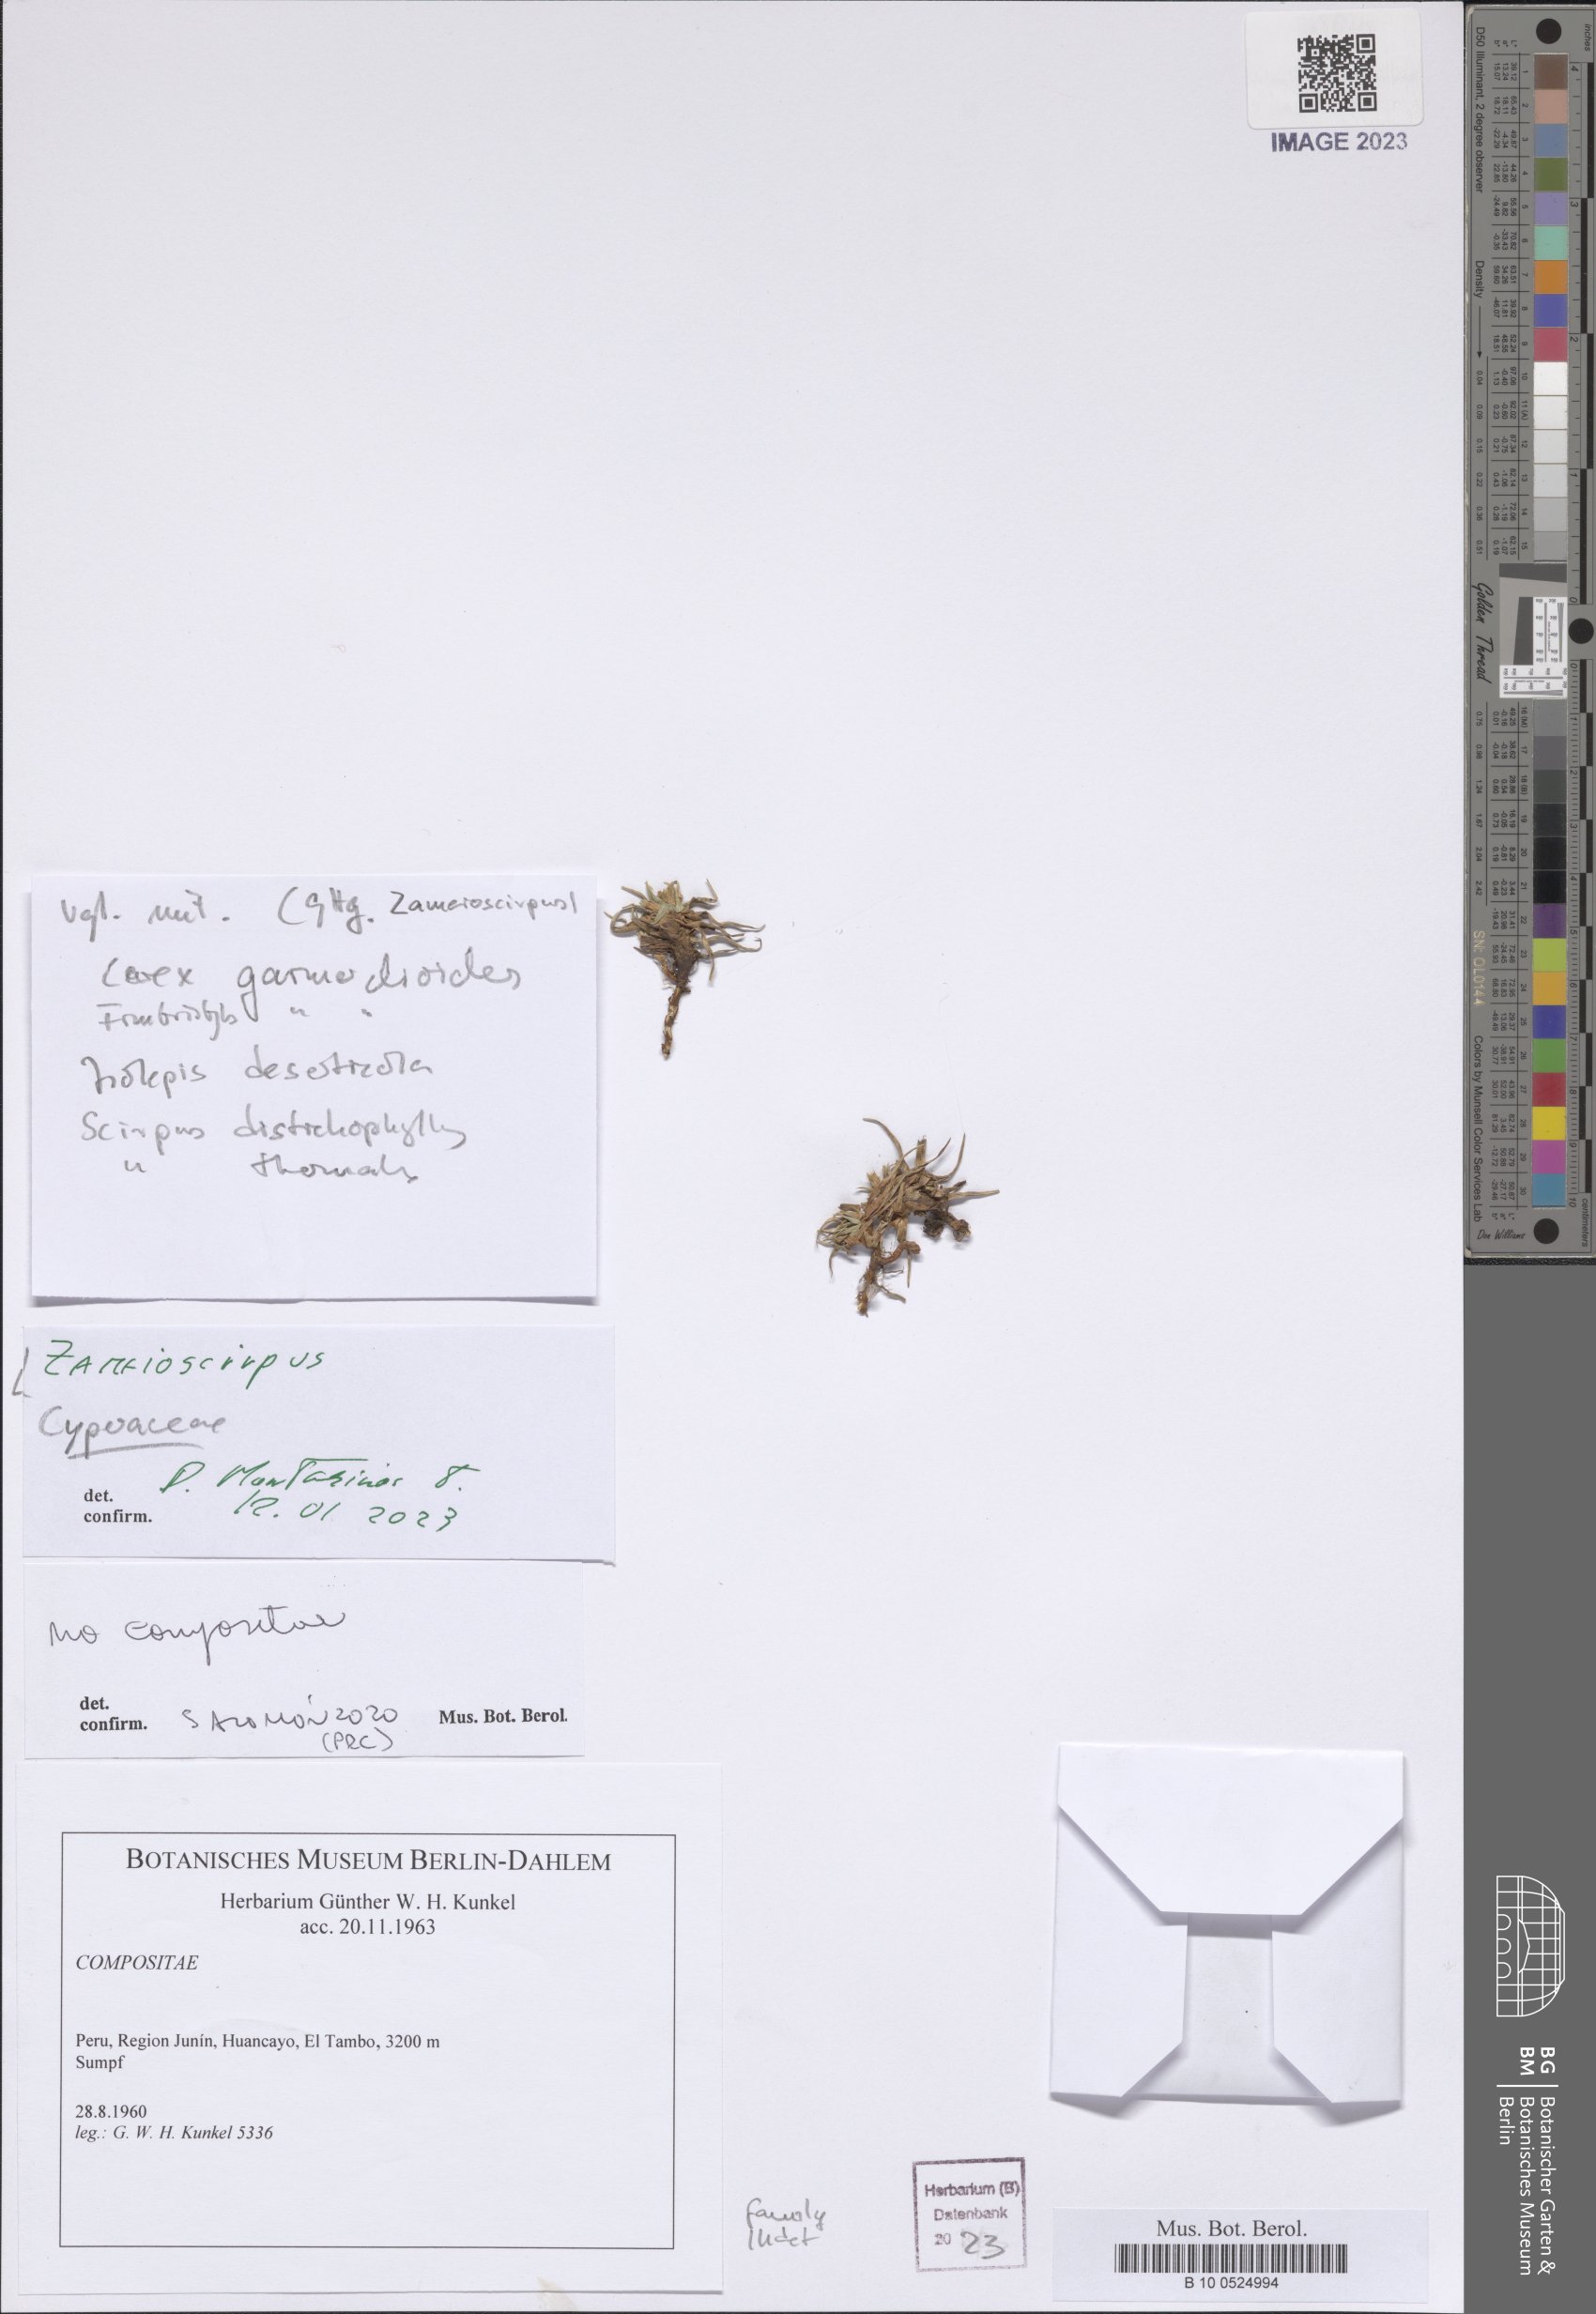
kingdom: Plantae
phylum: Tracheophyta
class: Liliopsida
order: Poales
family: Cyperaceae
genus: Zameioscirpus
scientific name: Zameioscirpus
